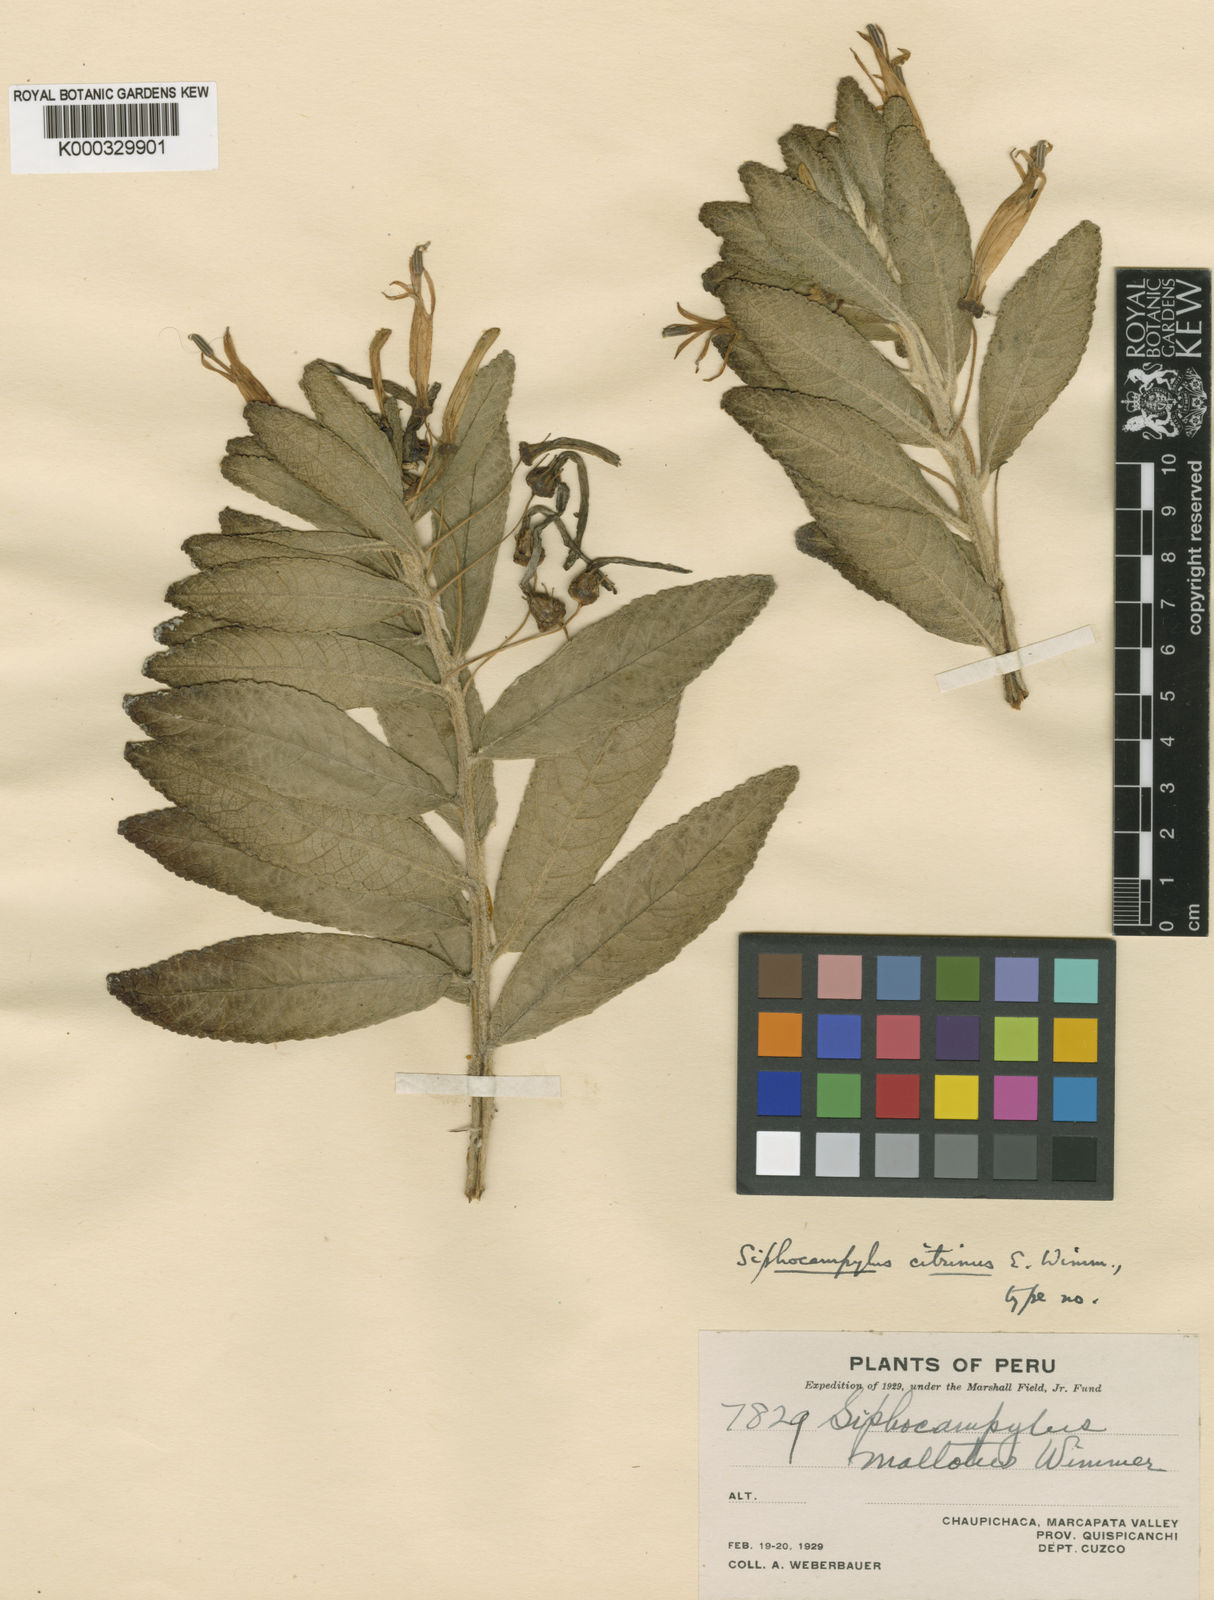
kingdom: Plantae
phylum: Tracheophyta
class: Magnoliopsida
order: Asterales
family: Campanulaceae
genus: Siphocampylus
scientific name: Siphocampylus citrinus
